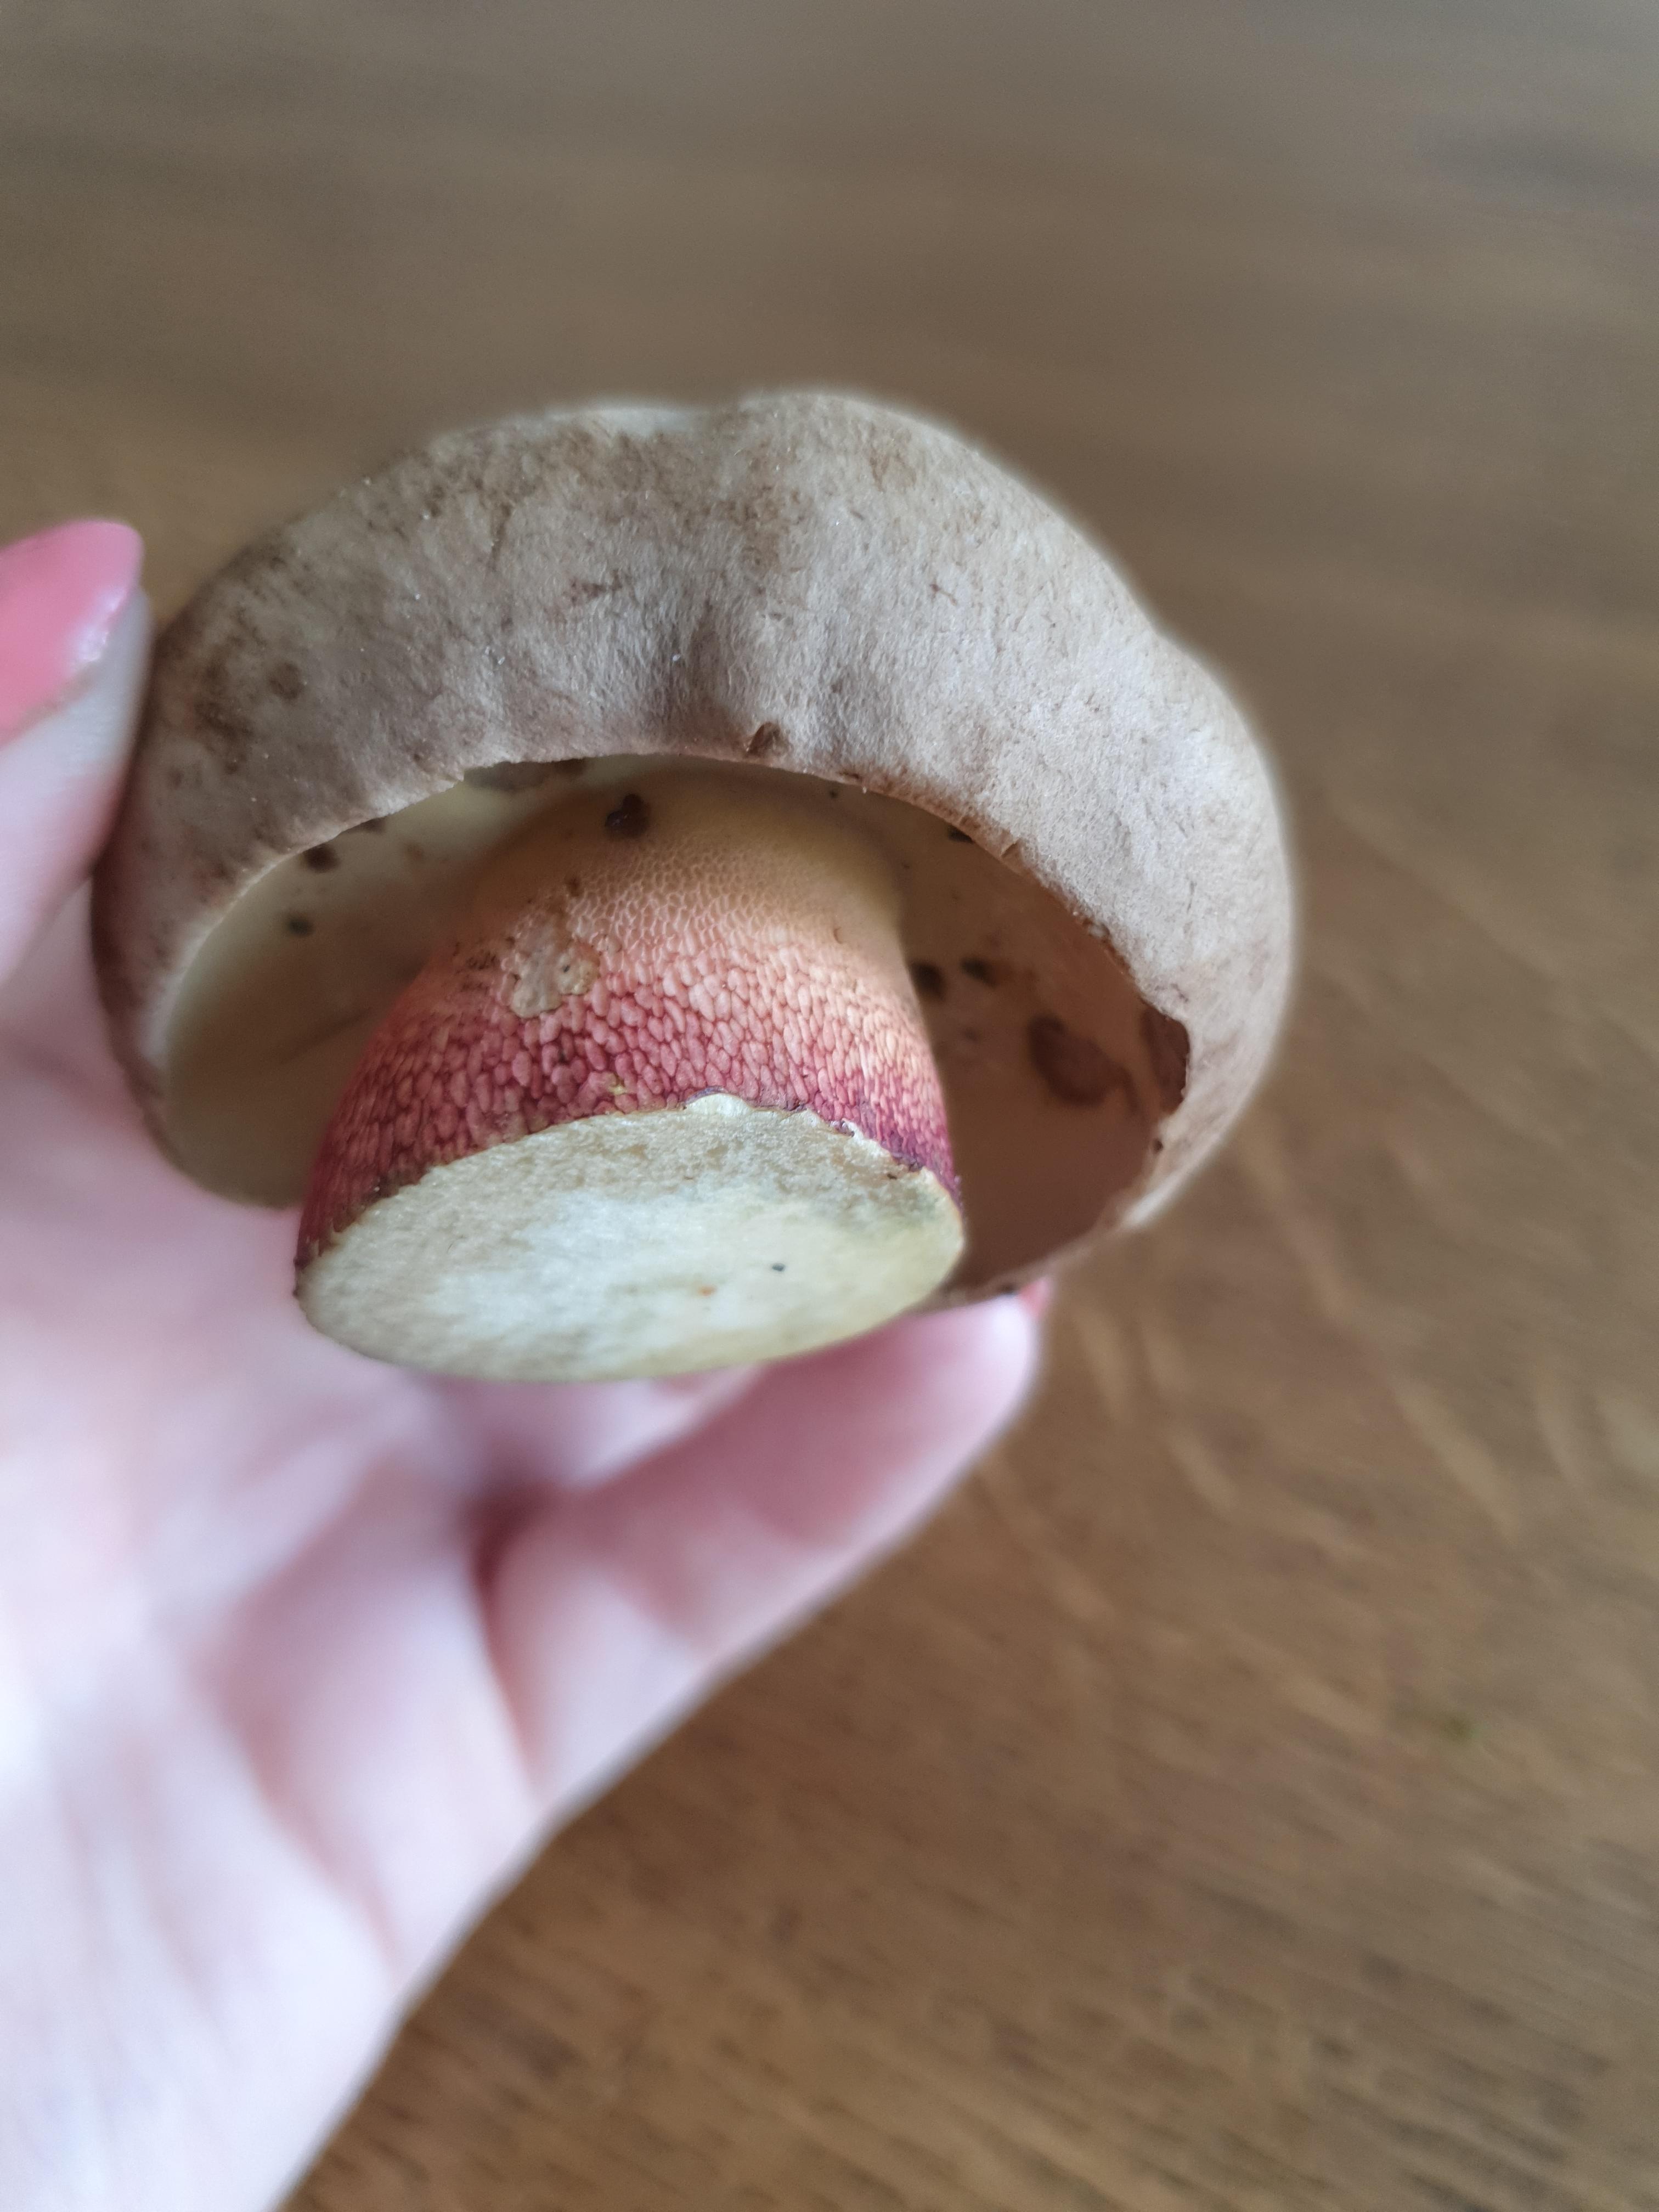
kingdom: Fungi
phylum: Basidiomycota
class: Agaricomycetes
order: Boletales
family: Boletaceae
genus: Caloboletus
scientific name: Caloboletus calopus
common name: skønfodet rørhat
